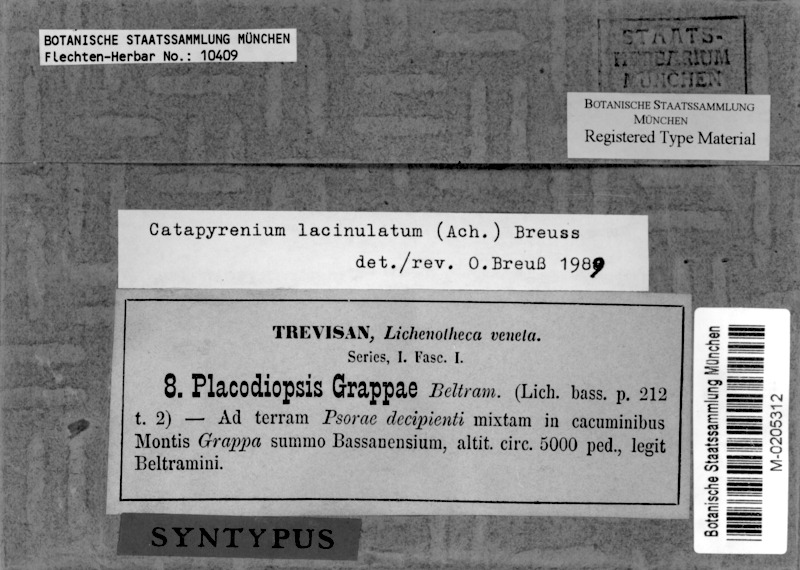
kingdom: Fungi
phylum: Ascomycota
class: Eurotiomycetes
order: Verrucariales
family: Verrucariaceae
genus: Clavascidium
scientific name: Clavascidium lacinulatum
